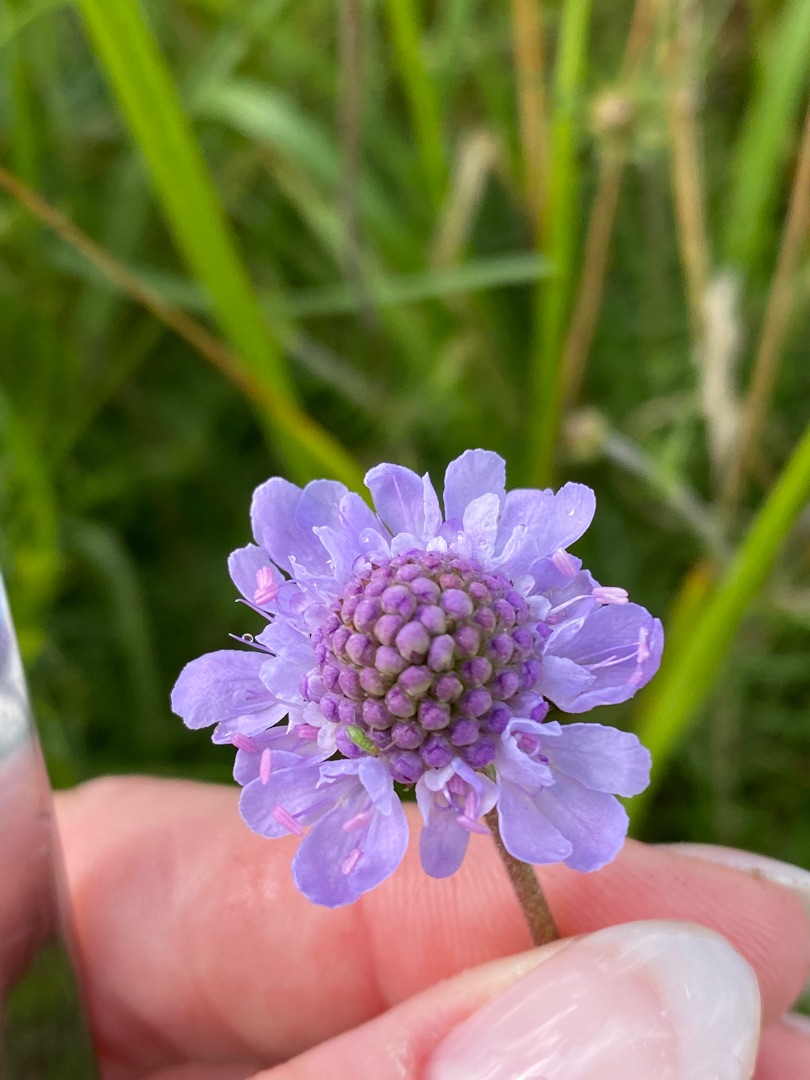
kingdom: Plantae
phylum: Tracheophyta
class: Magnoliopsida
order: Dipsacales
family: Caprifoliaceae
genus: Scabiosa
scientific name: Scabiosa canescens
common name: Vellugtende skabiose
